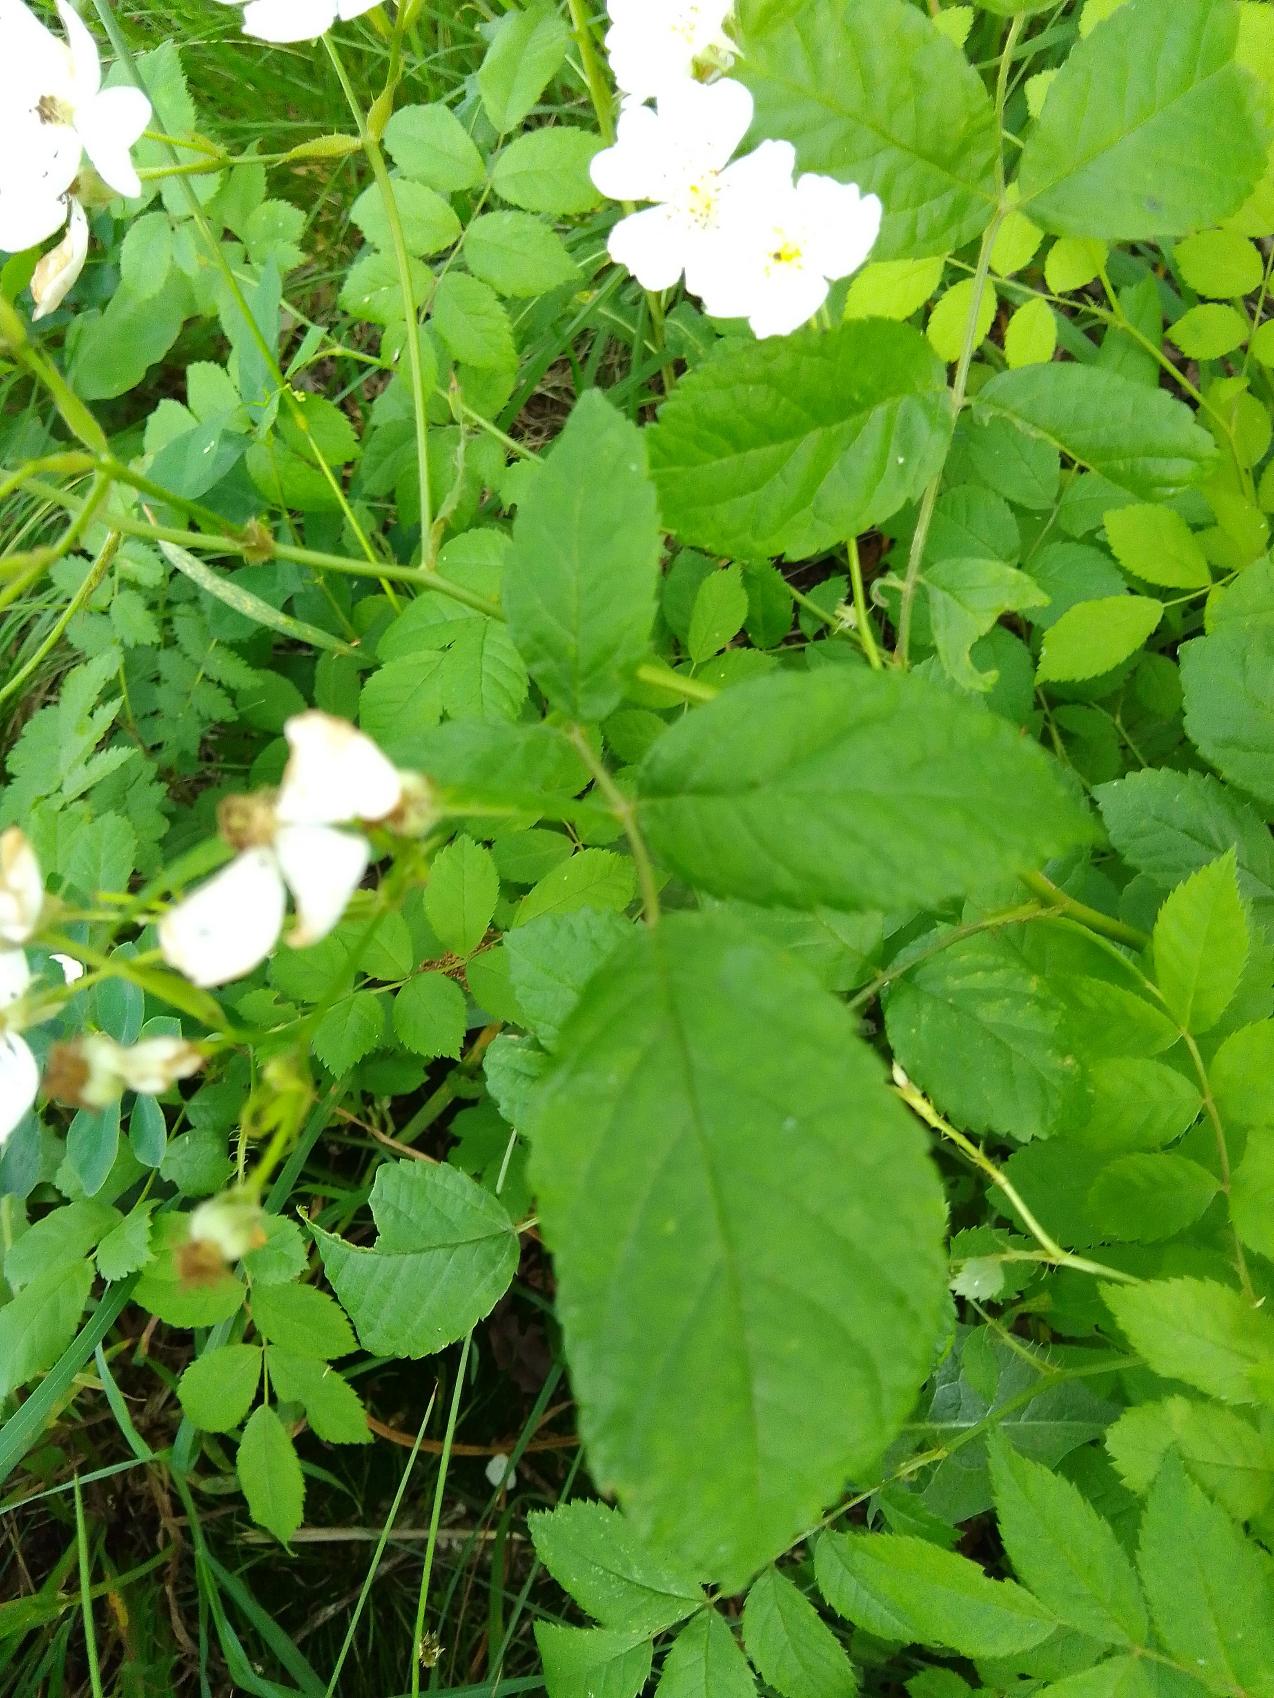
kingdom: Plantae
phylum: Tracheophyta
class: Magnoliopsida
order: Rosales
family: Rosaceae
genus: Rosa
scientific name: Rosa multiflora
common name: Mangeblomstret rose
